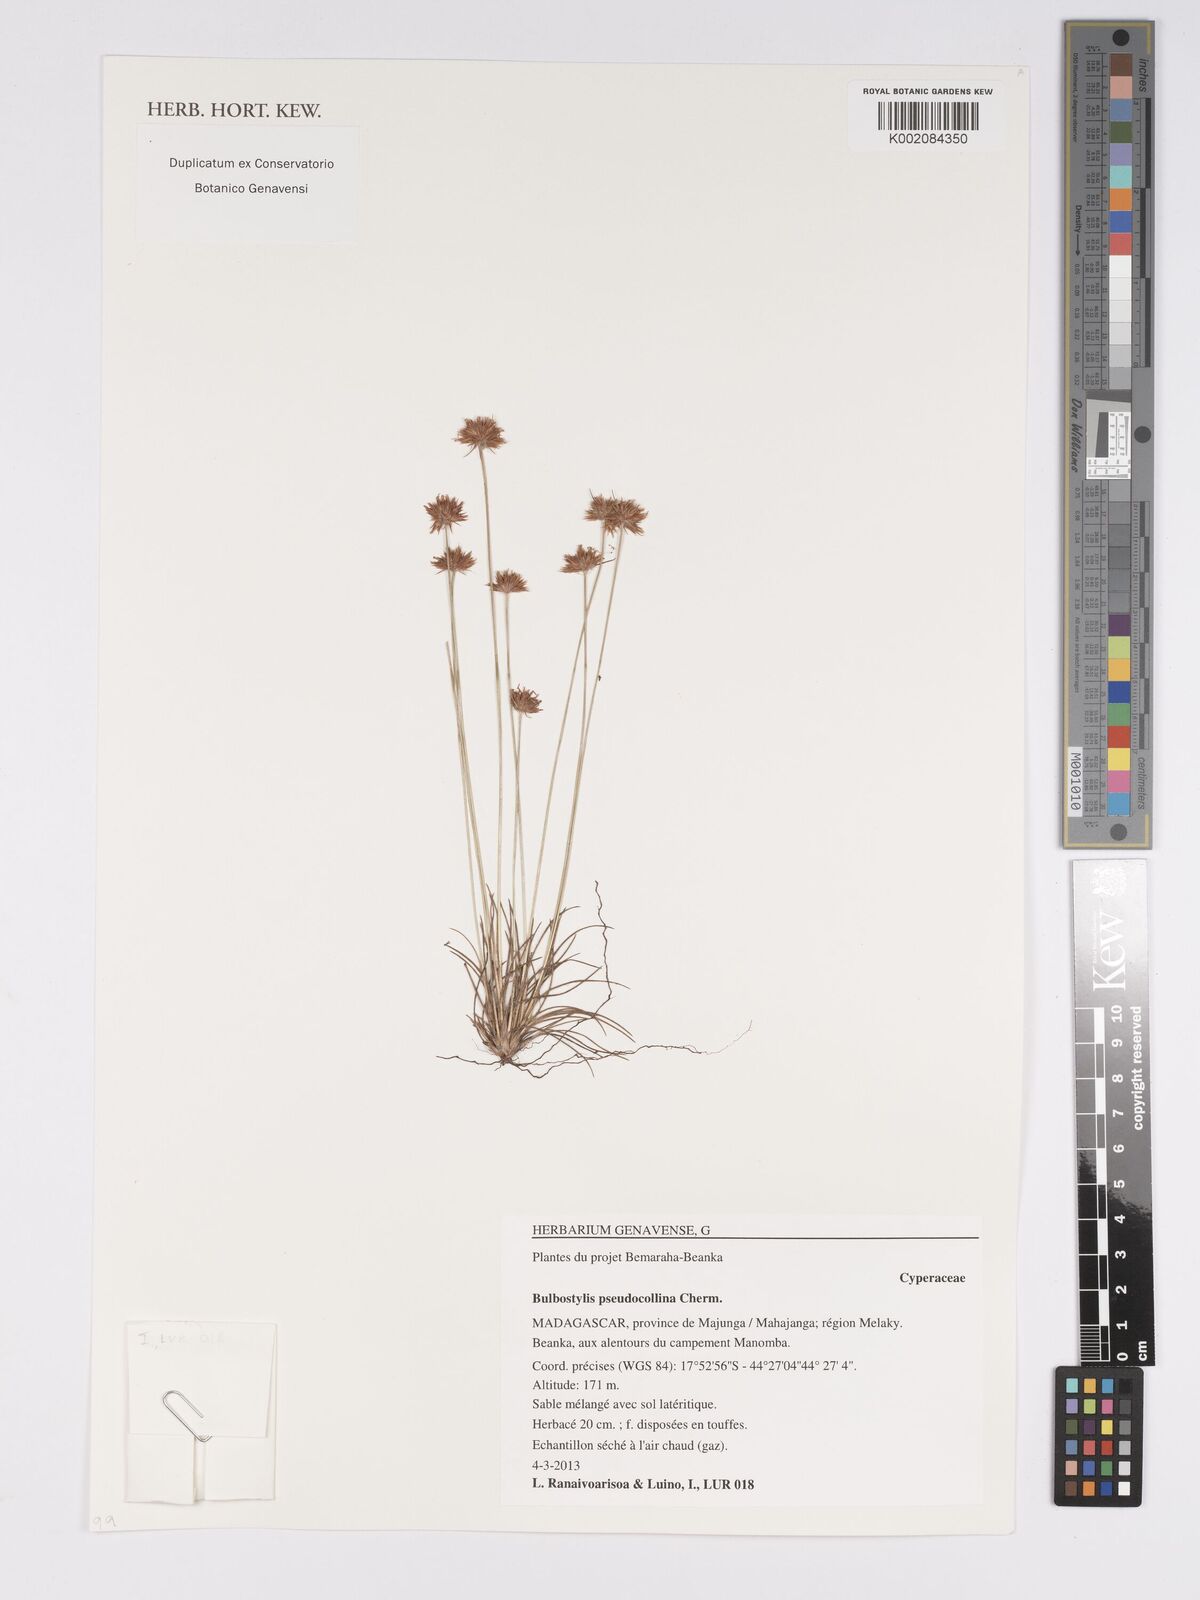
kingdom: Plantae
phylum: Tracheophyta
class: Liliopsida
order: Poales
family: Cyperaceae
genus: Bulbostylis
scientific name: Bulbostylis pseudocollina
